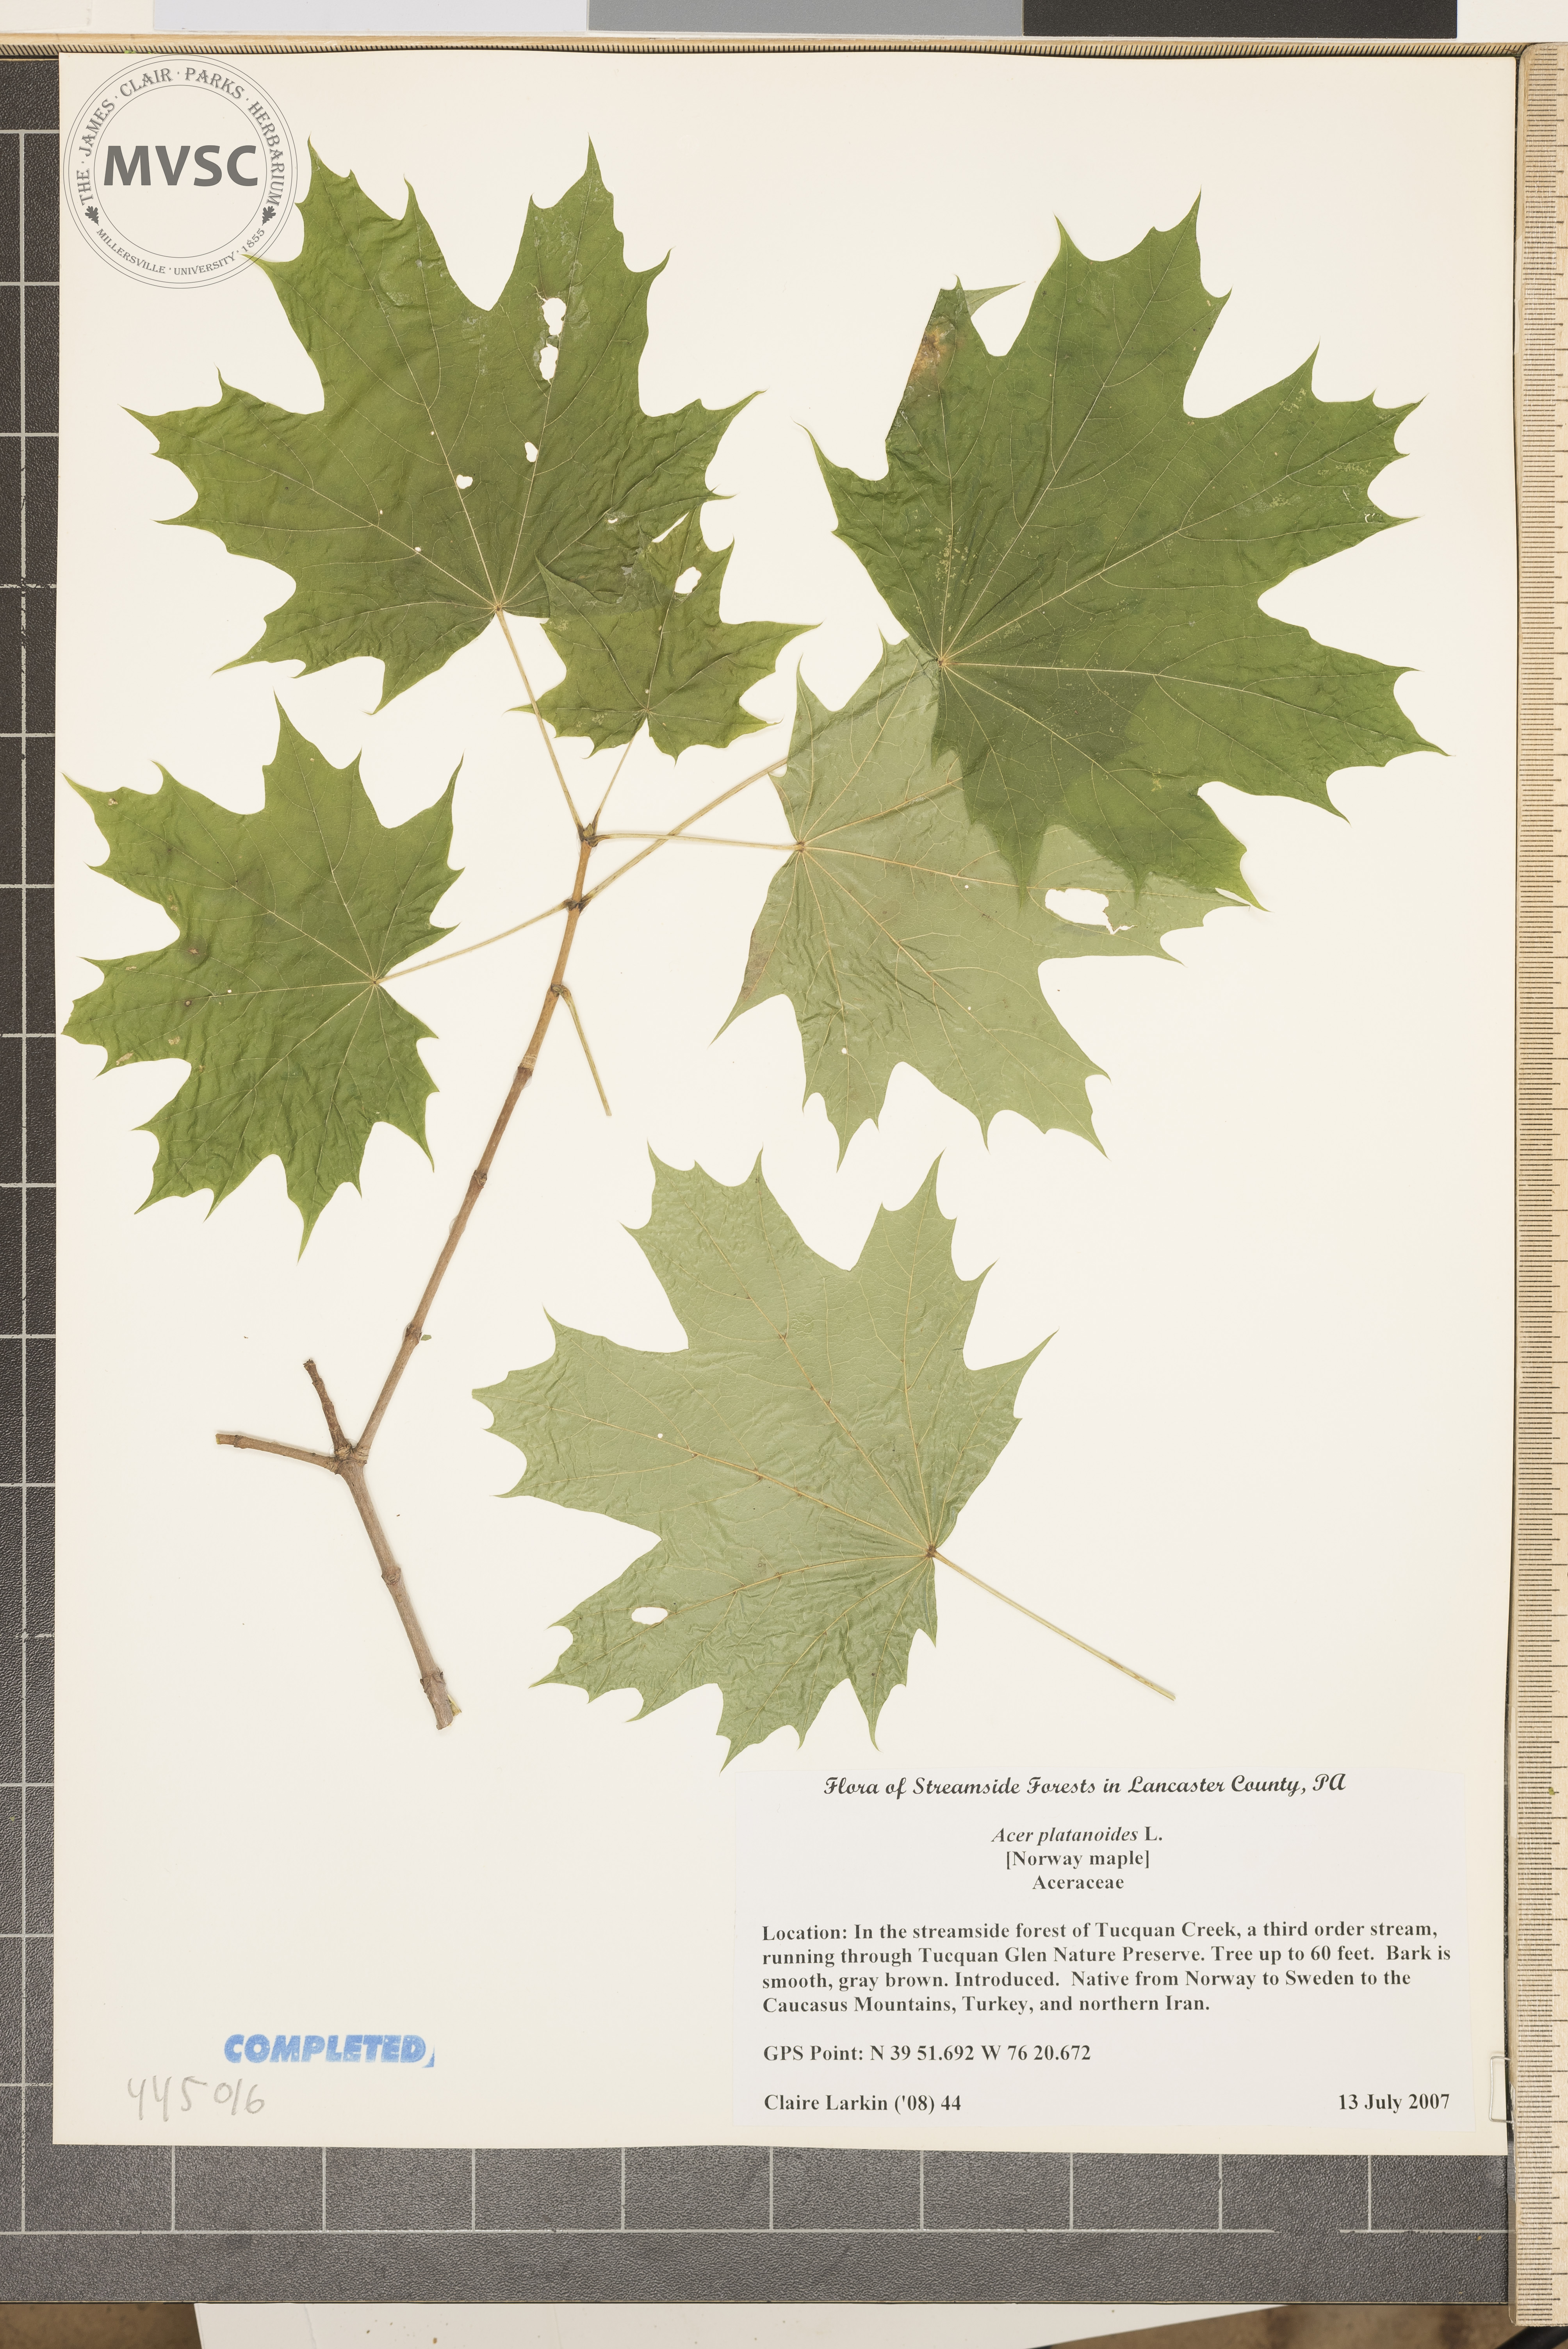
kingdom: Plantae
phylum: Tracheophyta
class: Magnoliopsida
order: Sapindales
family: Sapindaceae
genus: Acer
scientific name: Acer platanoides
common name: Norway Maple
